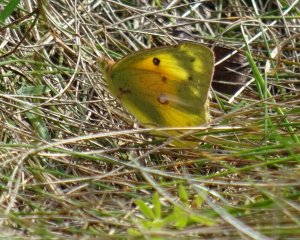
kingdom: Animalia
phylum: Arthropoda
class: Insecta
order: Lepidoptera
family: Pieridae
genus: Colias
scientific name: Colias eurytheme
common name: Orange Sulphur
